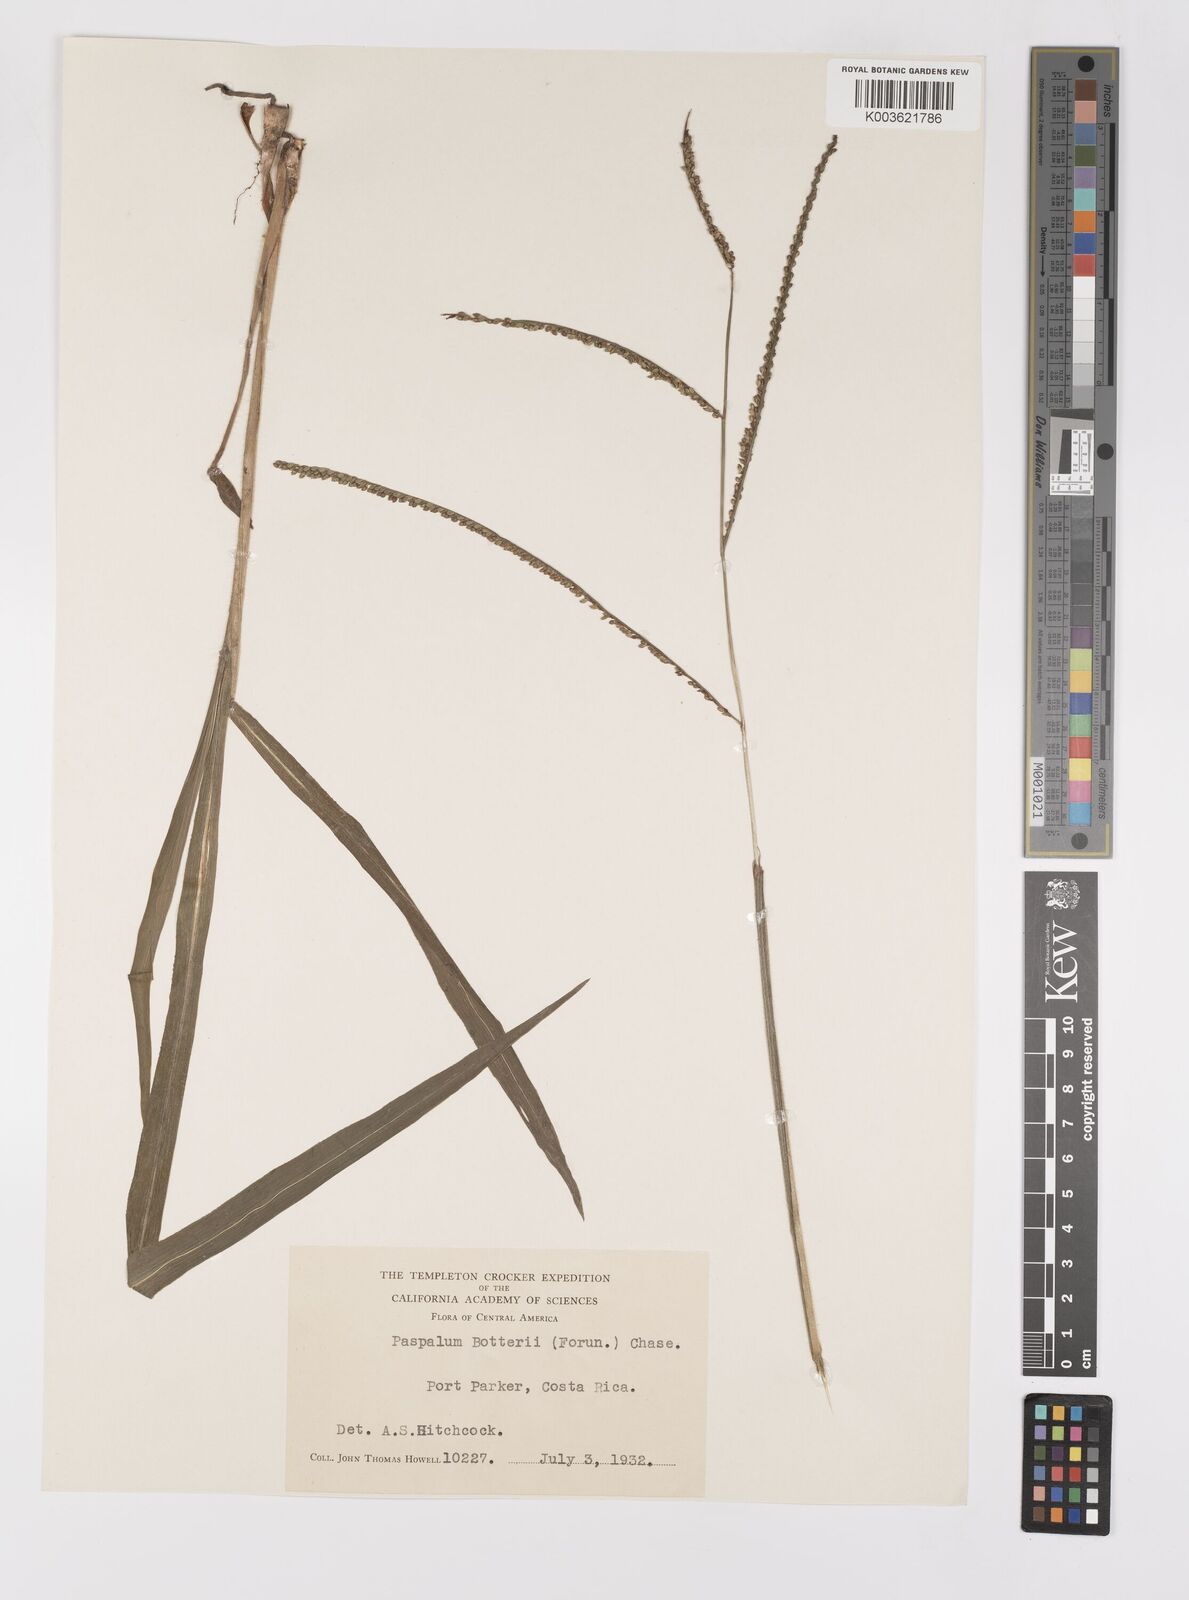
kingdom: Plantae
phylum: Tracheophyta
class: Liliopsida
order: Poales
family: Poaceae
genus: Paspalum
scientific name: Paspalum botterii
